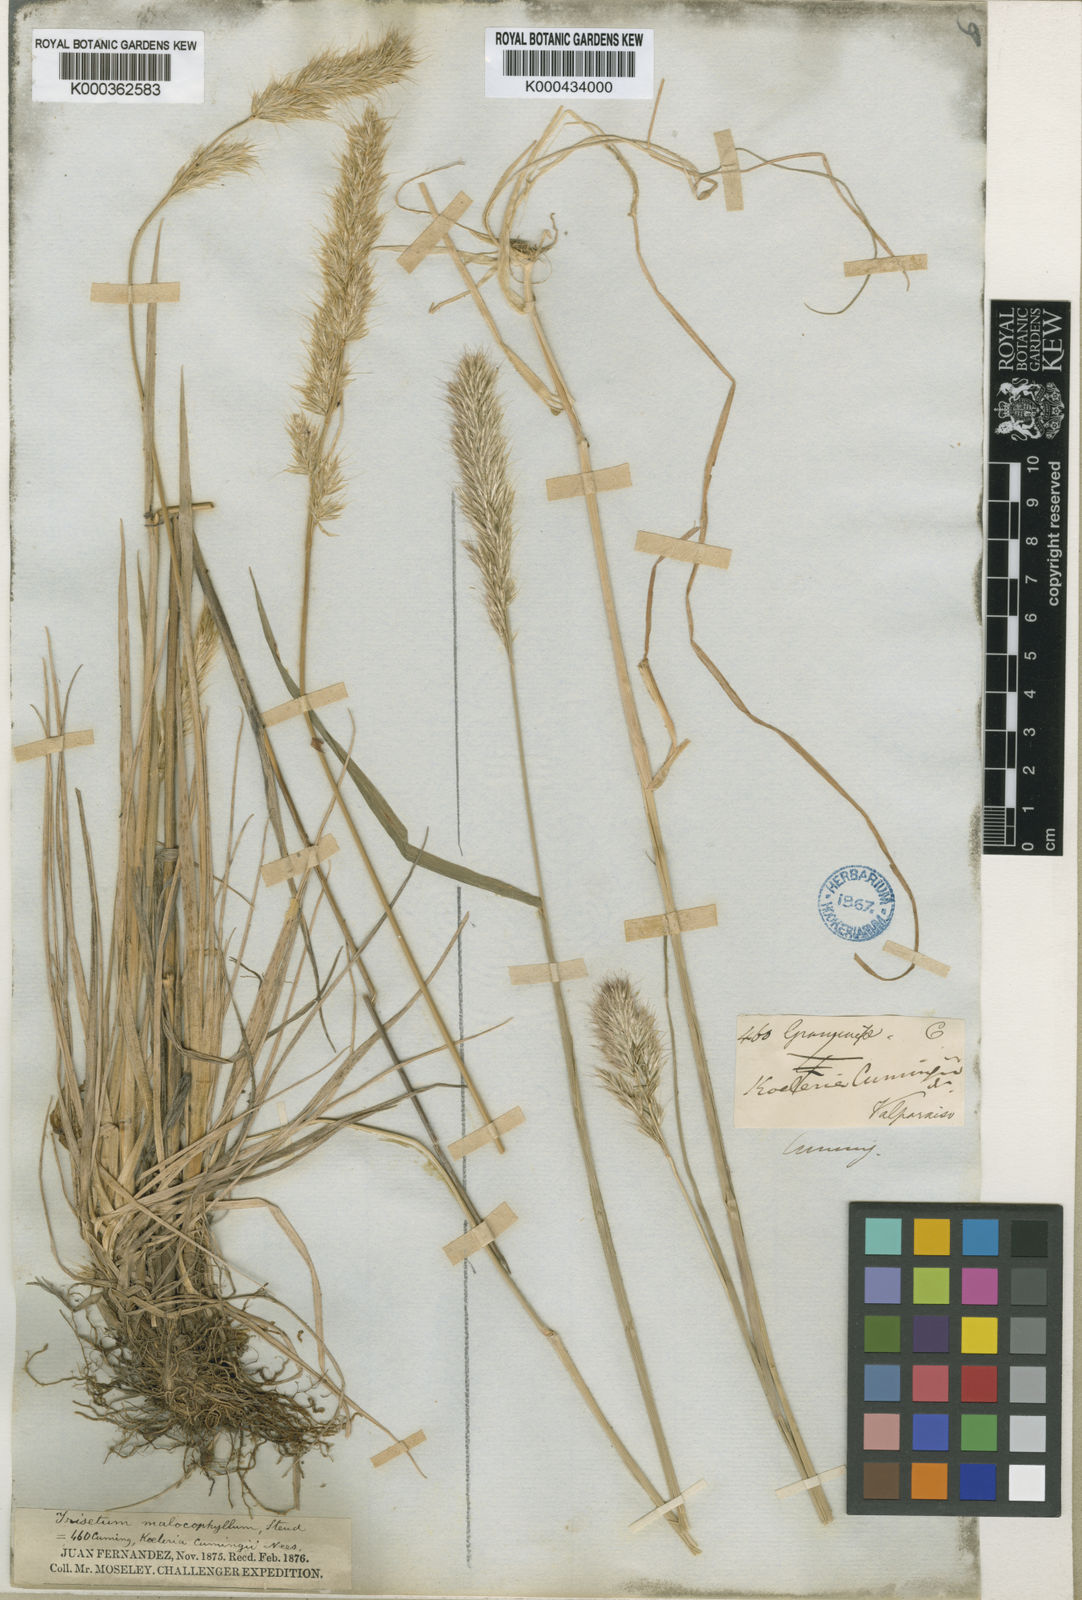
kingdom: Plantae
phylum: Tracheophyta
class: Liliopsida
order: Poales
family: Poaceae
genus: Koeleria
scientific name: Koeleria spicata
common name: Mountain trisetum
